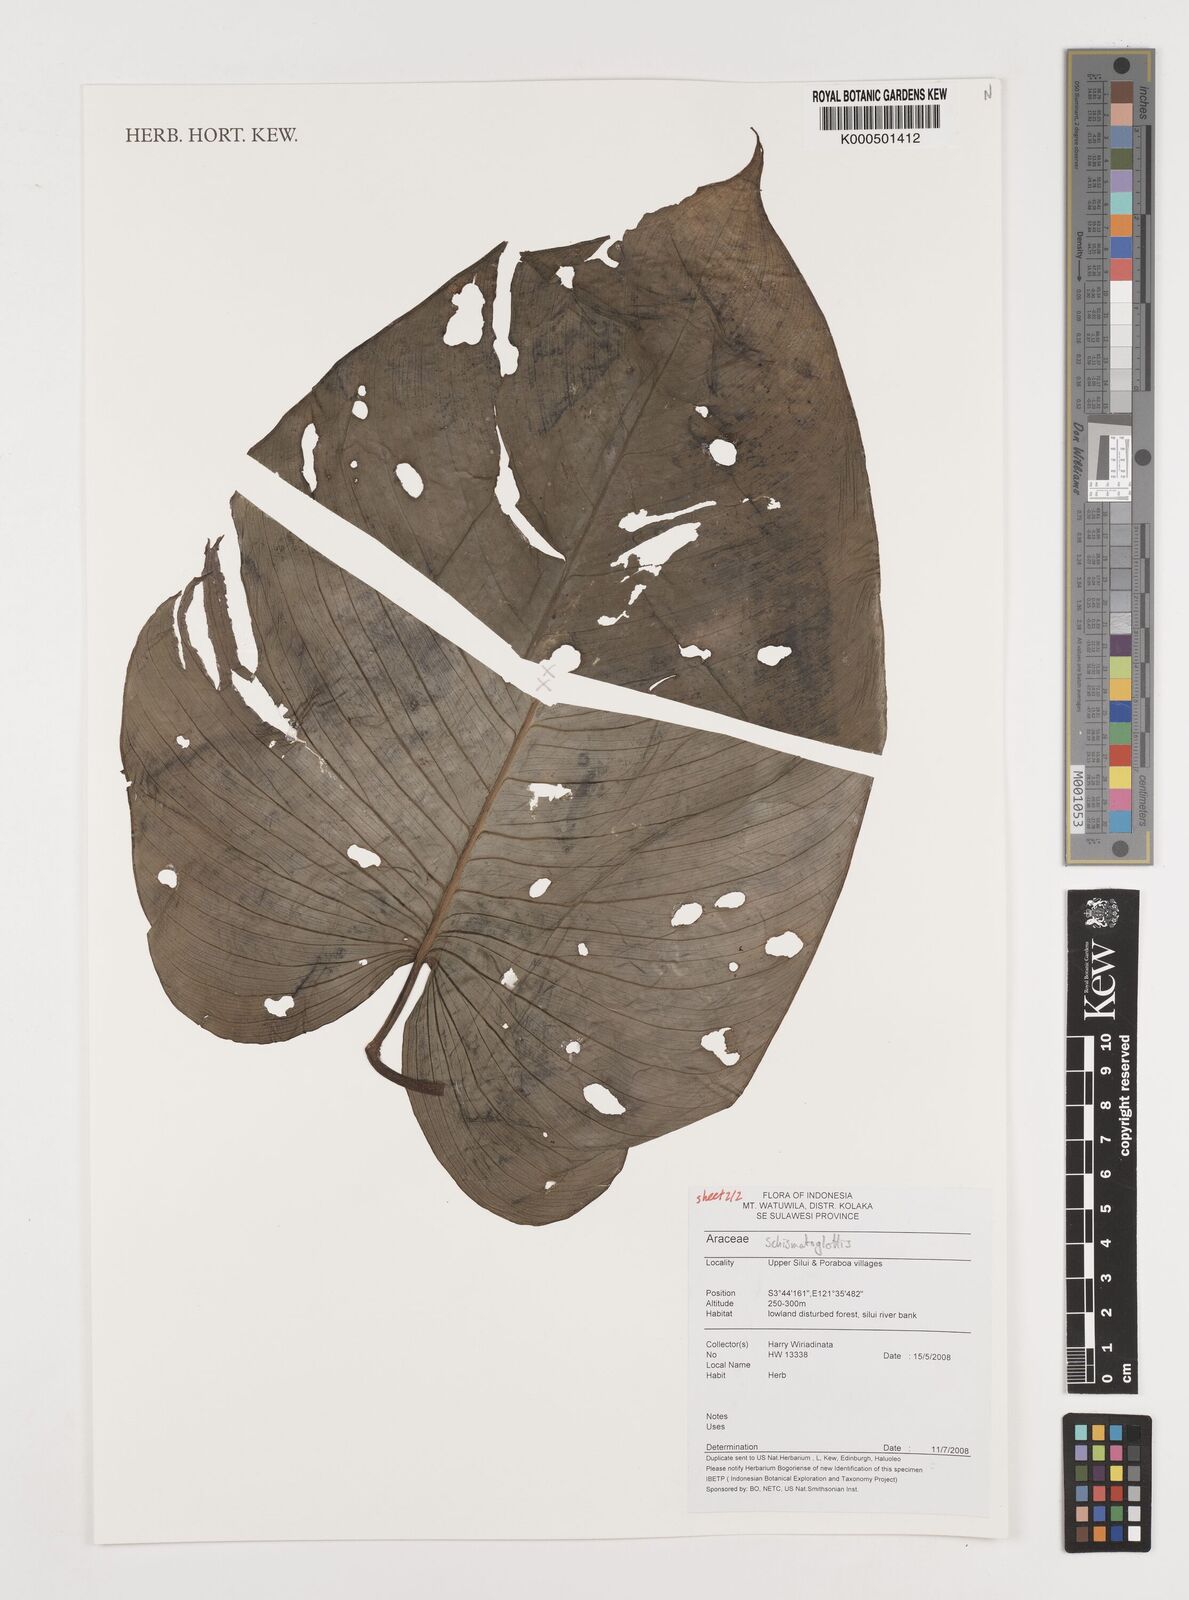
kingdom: Plantae
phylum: Tracheophyta
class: Liliopsida
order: Alismatales
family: Araceae
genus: Schismatoglottis
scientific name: Schismatoglottis
